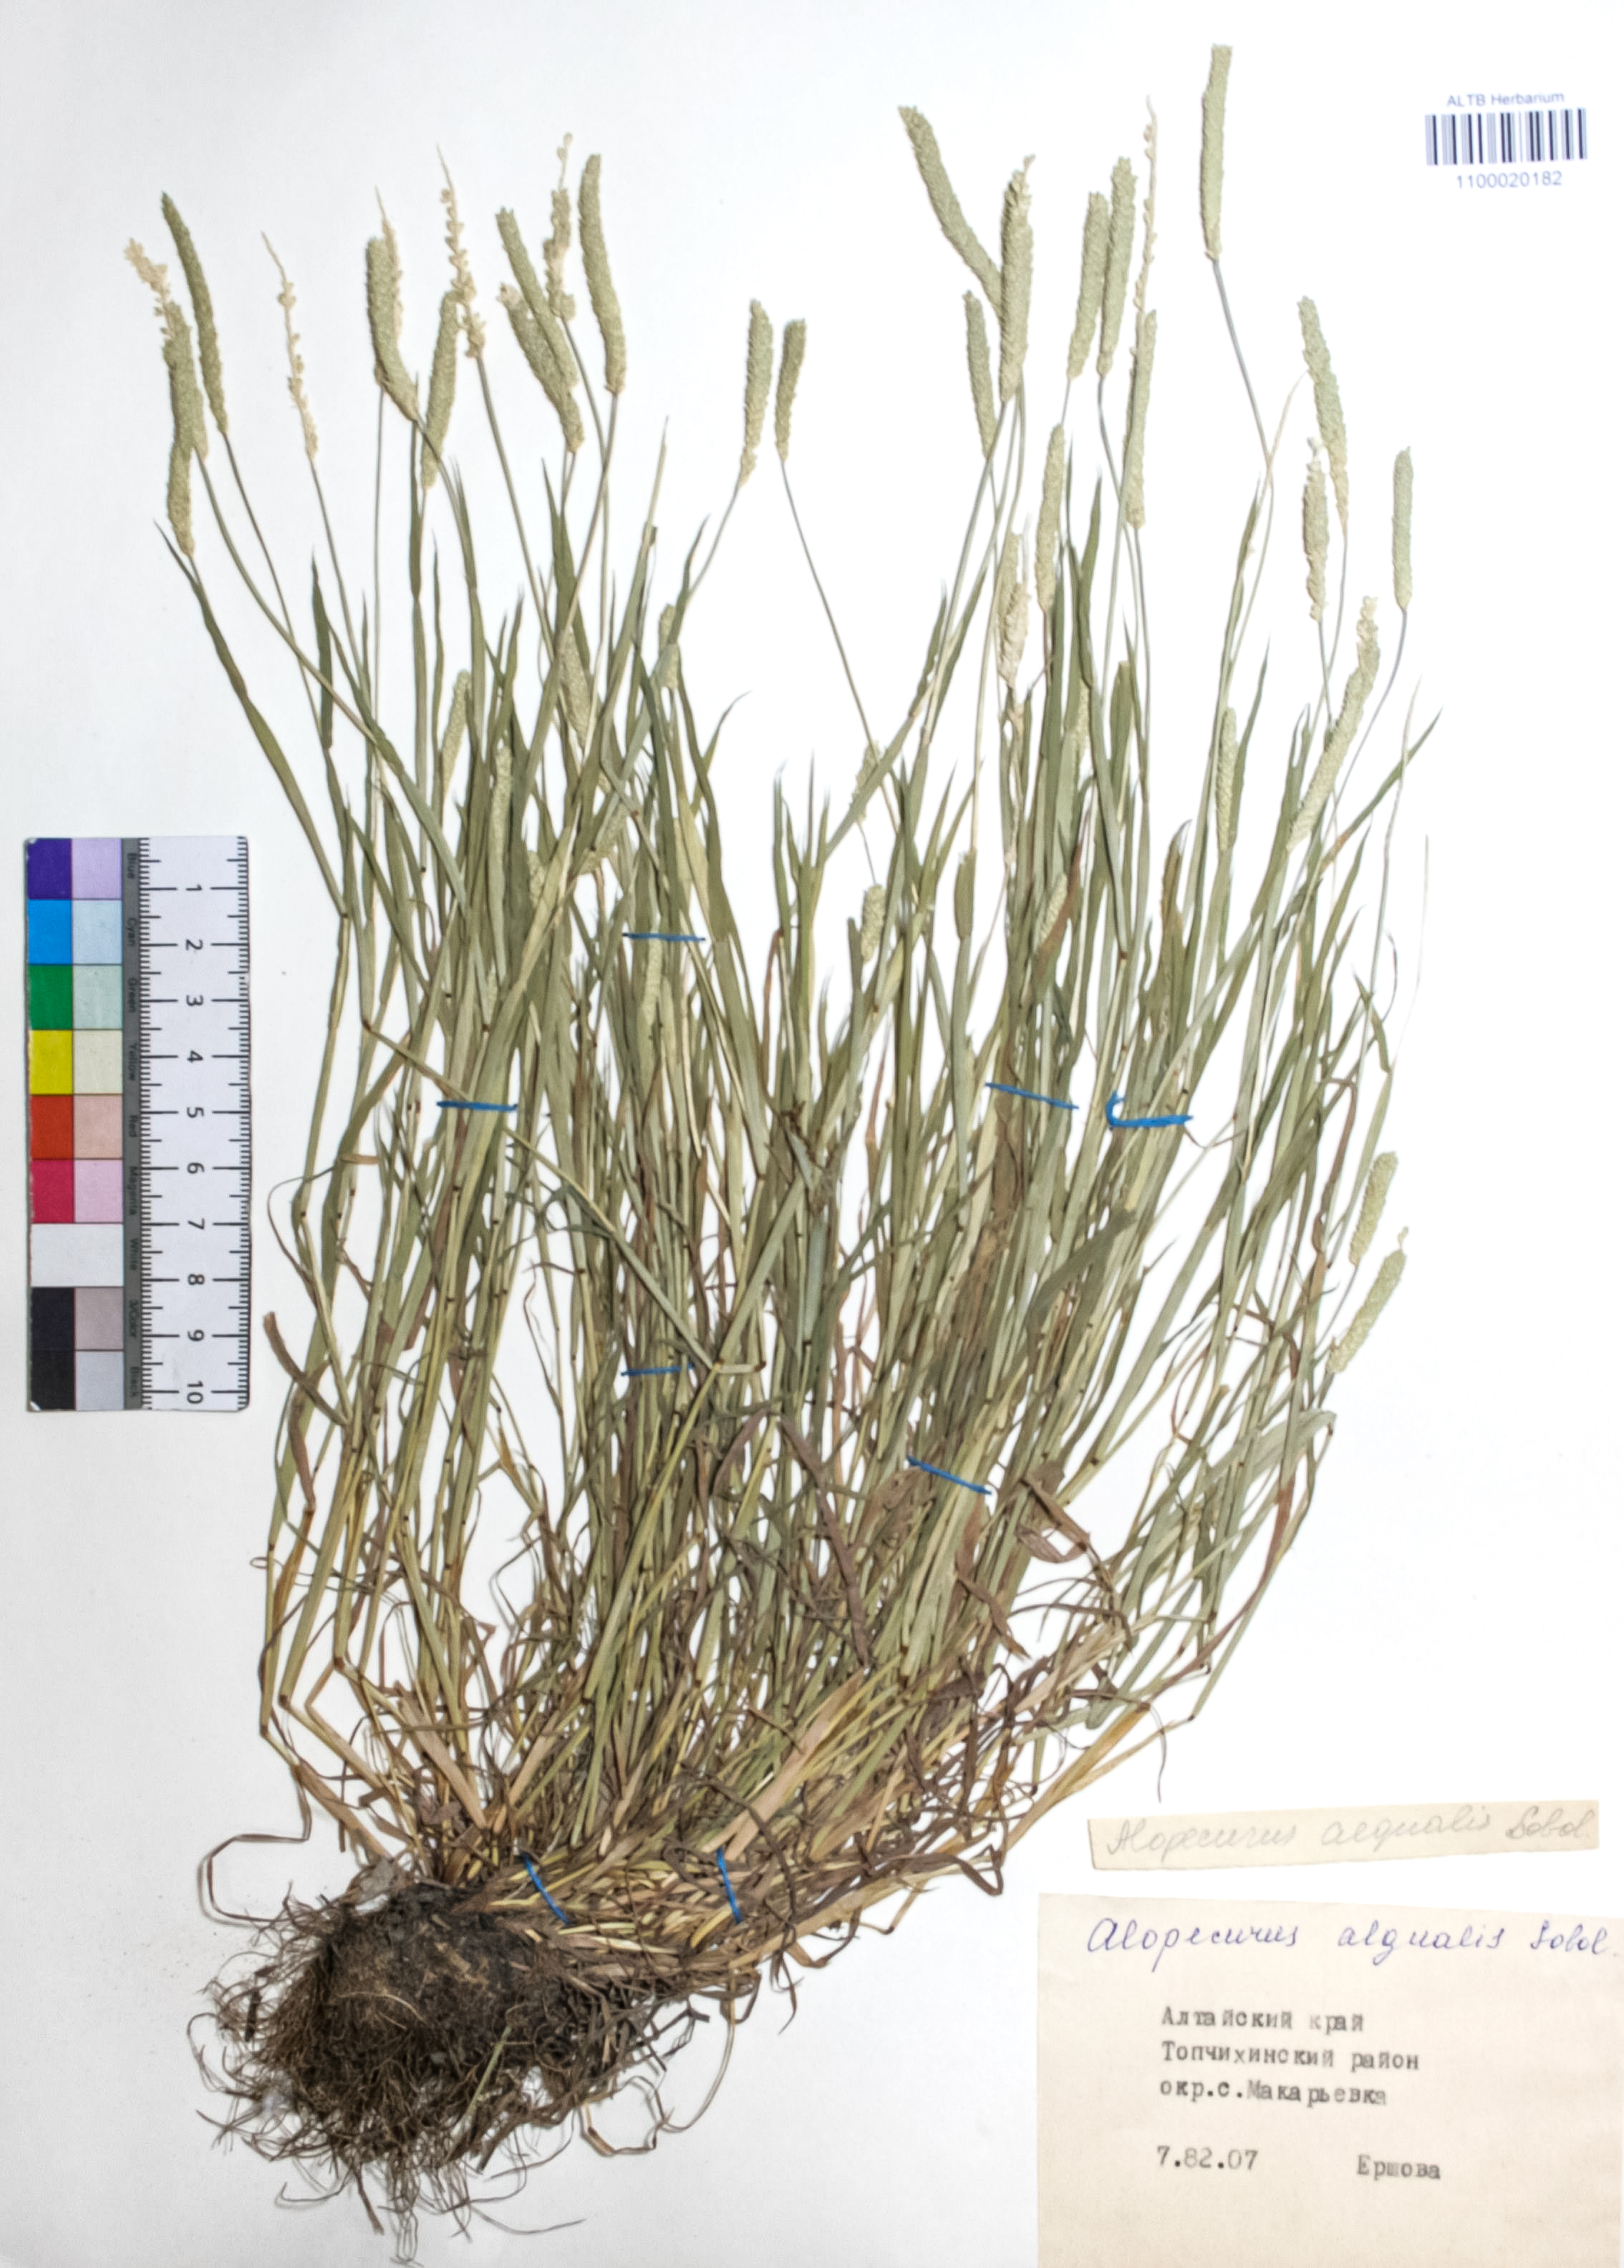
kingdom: Plantae
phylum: Tracheophyta
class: Liliopsida
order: Poales
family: Poaceae
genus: Alopecurus
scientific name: Alopecurus aequalis
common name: Orange foxtail
